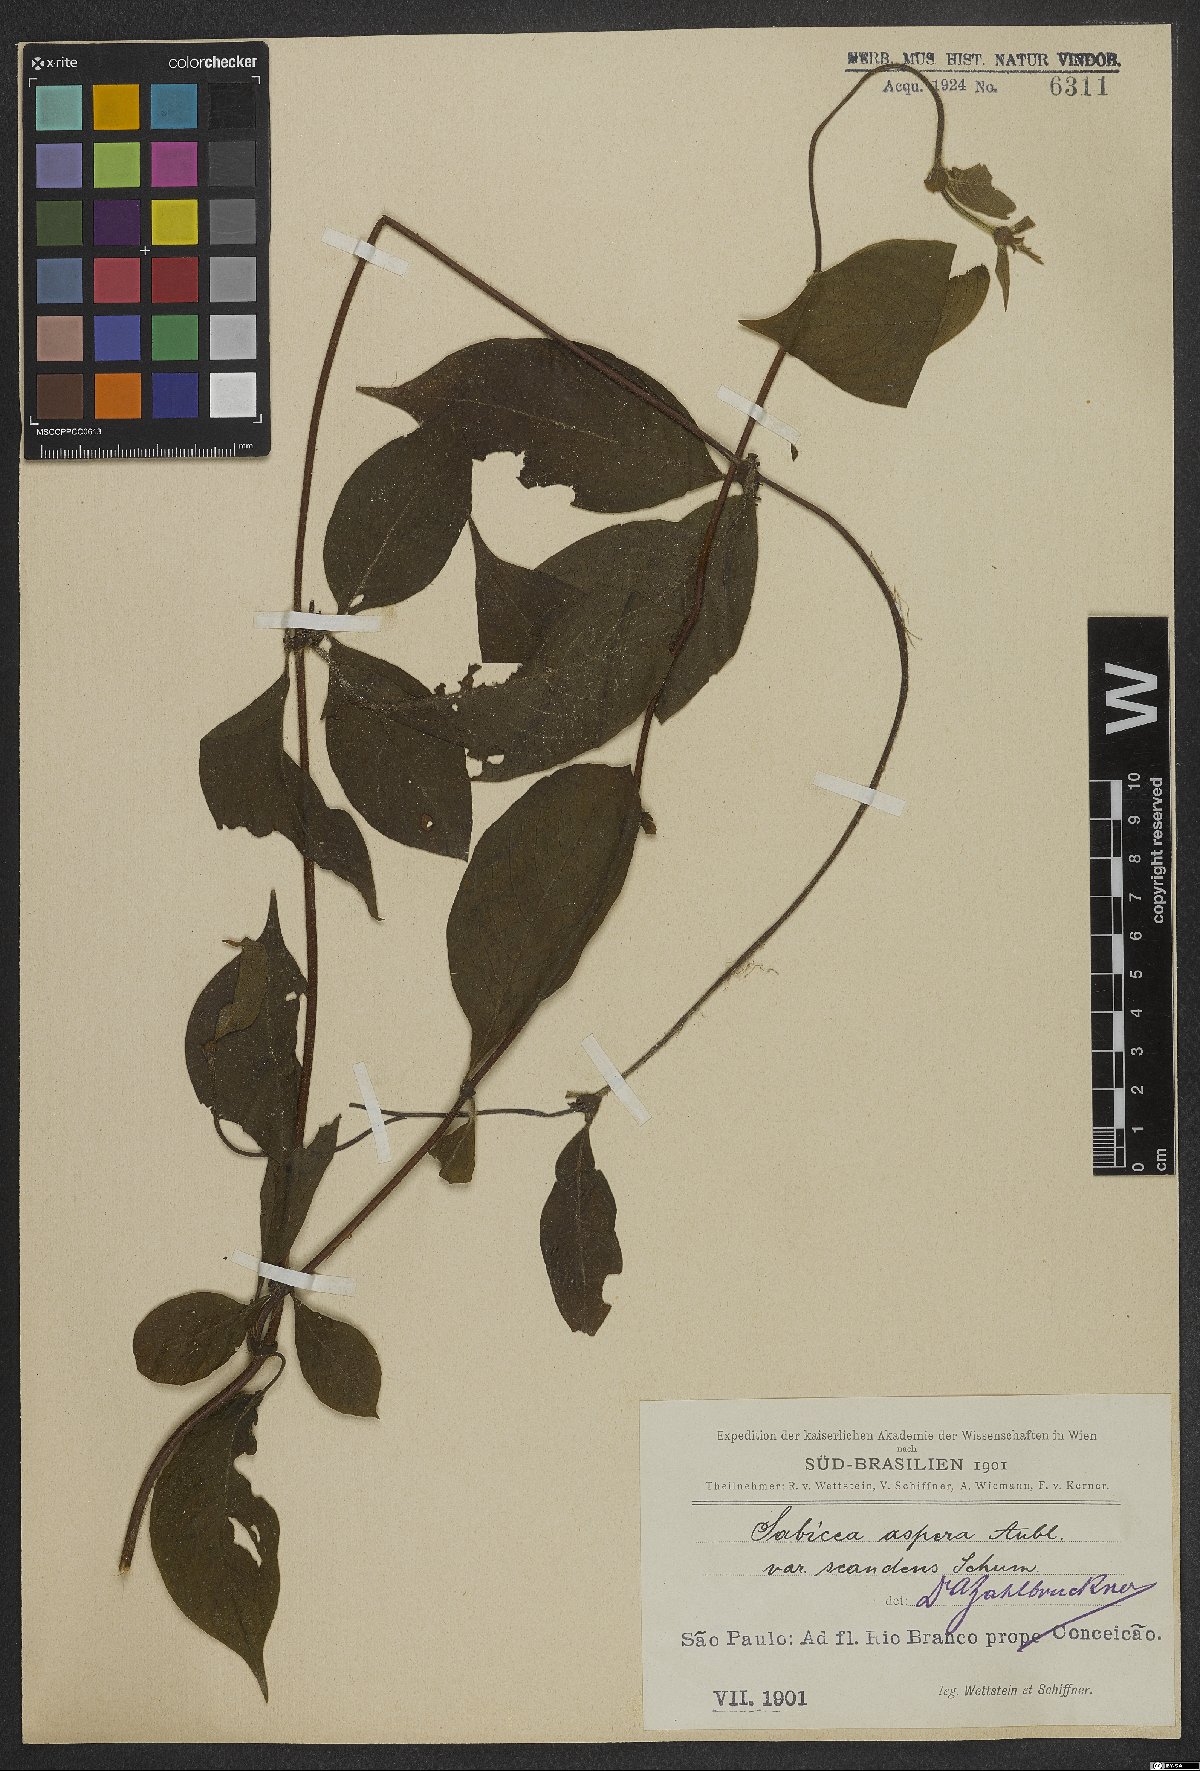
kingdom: Plantae
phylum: Tracheophyta
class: Magnoliopsida
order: Gentianales
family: Rubiaceae
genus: Sabicea
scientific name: Sabicea villosa
